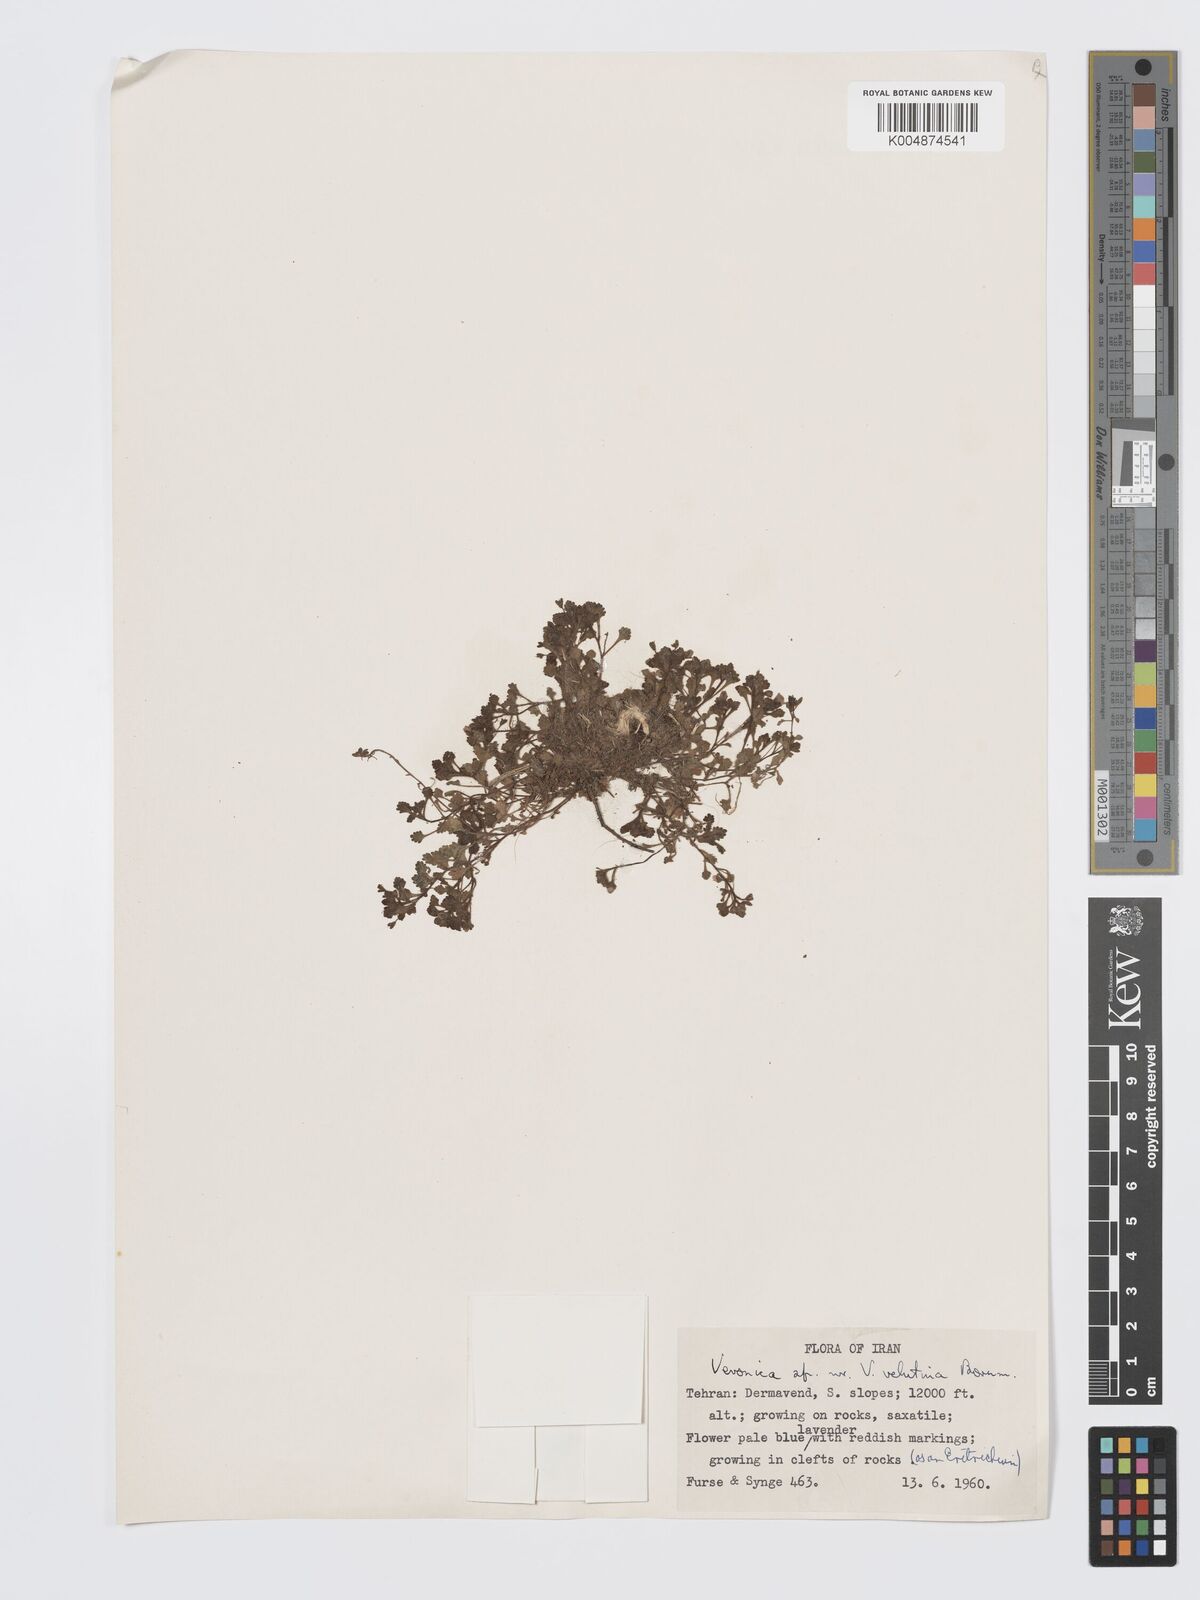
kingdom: Plantae
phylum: Tracheophyta
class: Magnoliopsida
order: Lamiales
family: Plantaginaceae
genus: Veronica
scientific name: Veronica velutina
